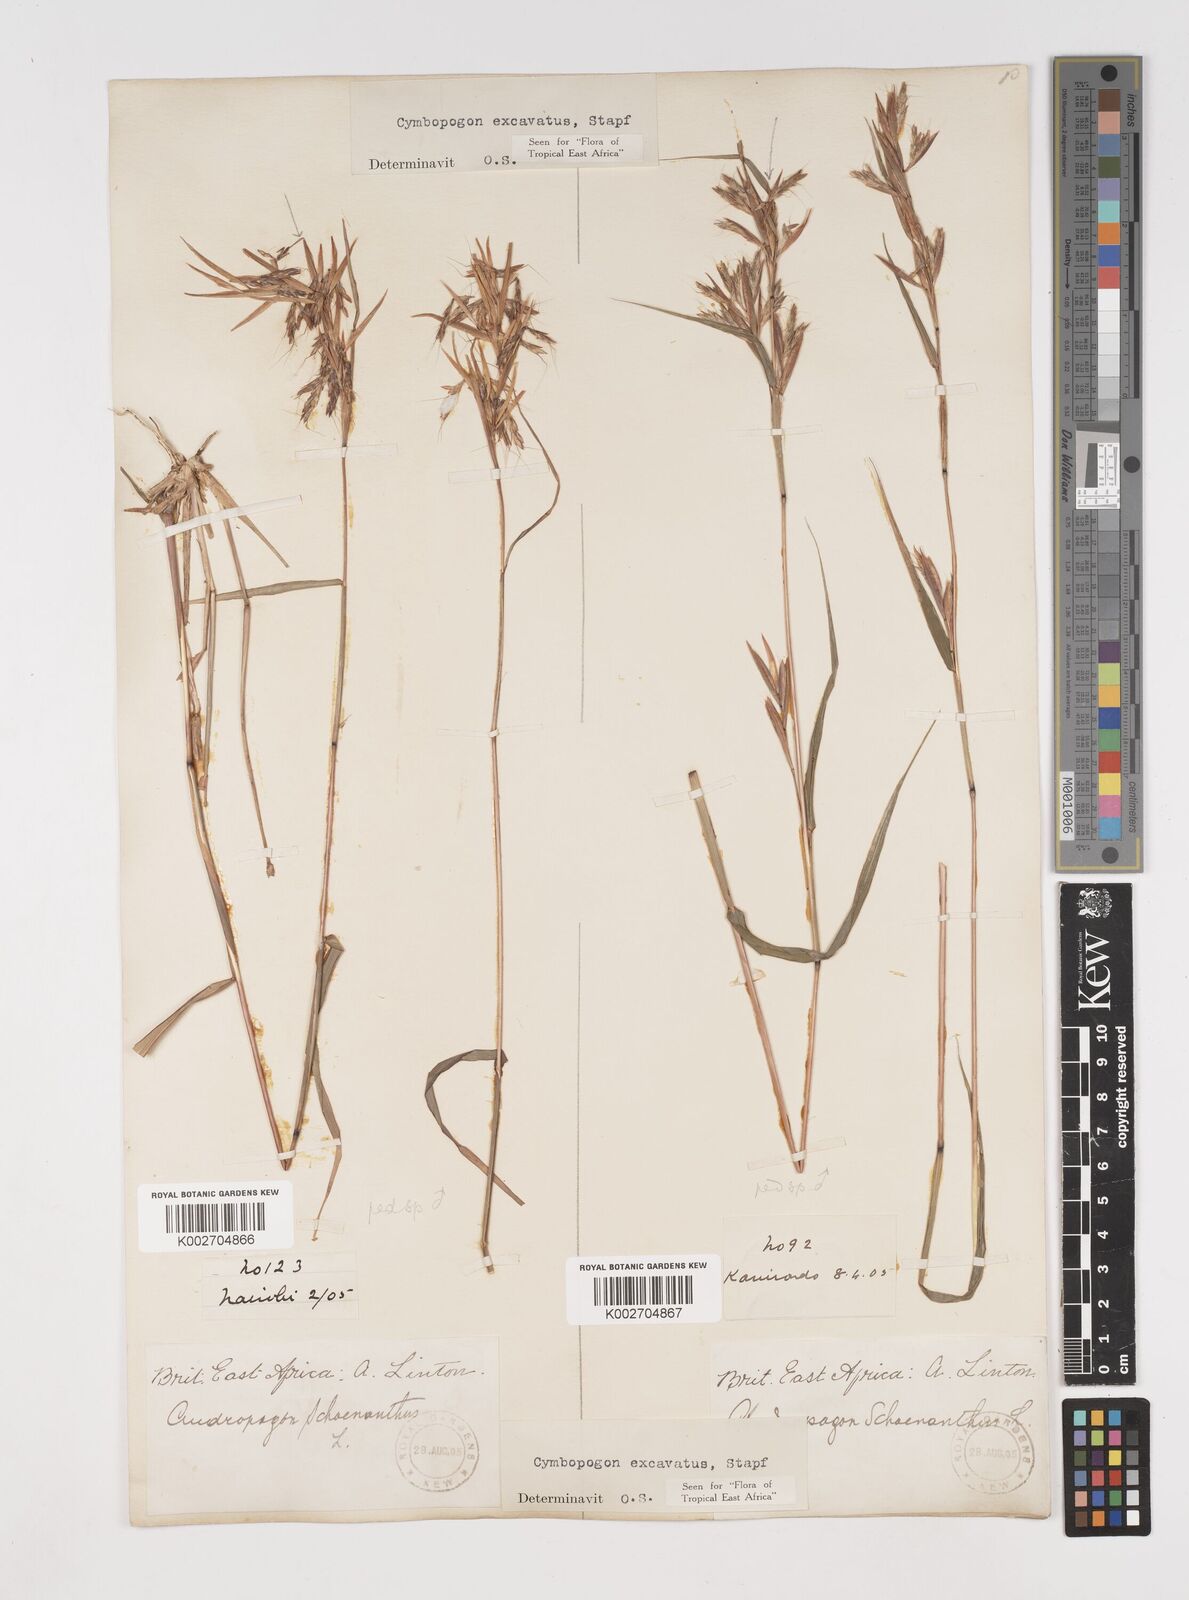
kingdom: Plantae
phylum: Tracheophyta
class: Liliopsida
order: Poales
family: Poaceae
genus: Cymbopogon
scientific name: Cymbopogon caesius
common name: Kachi grass
